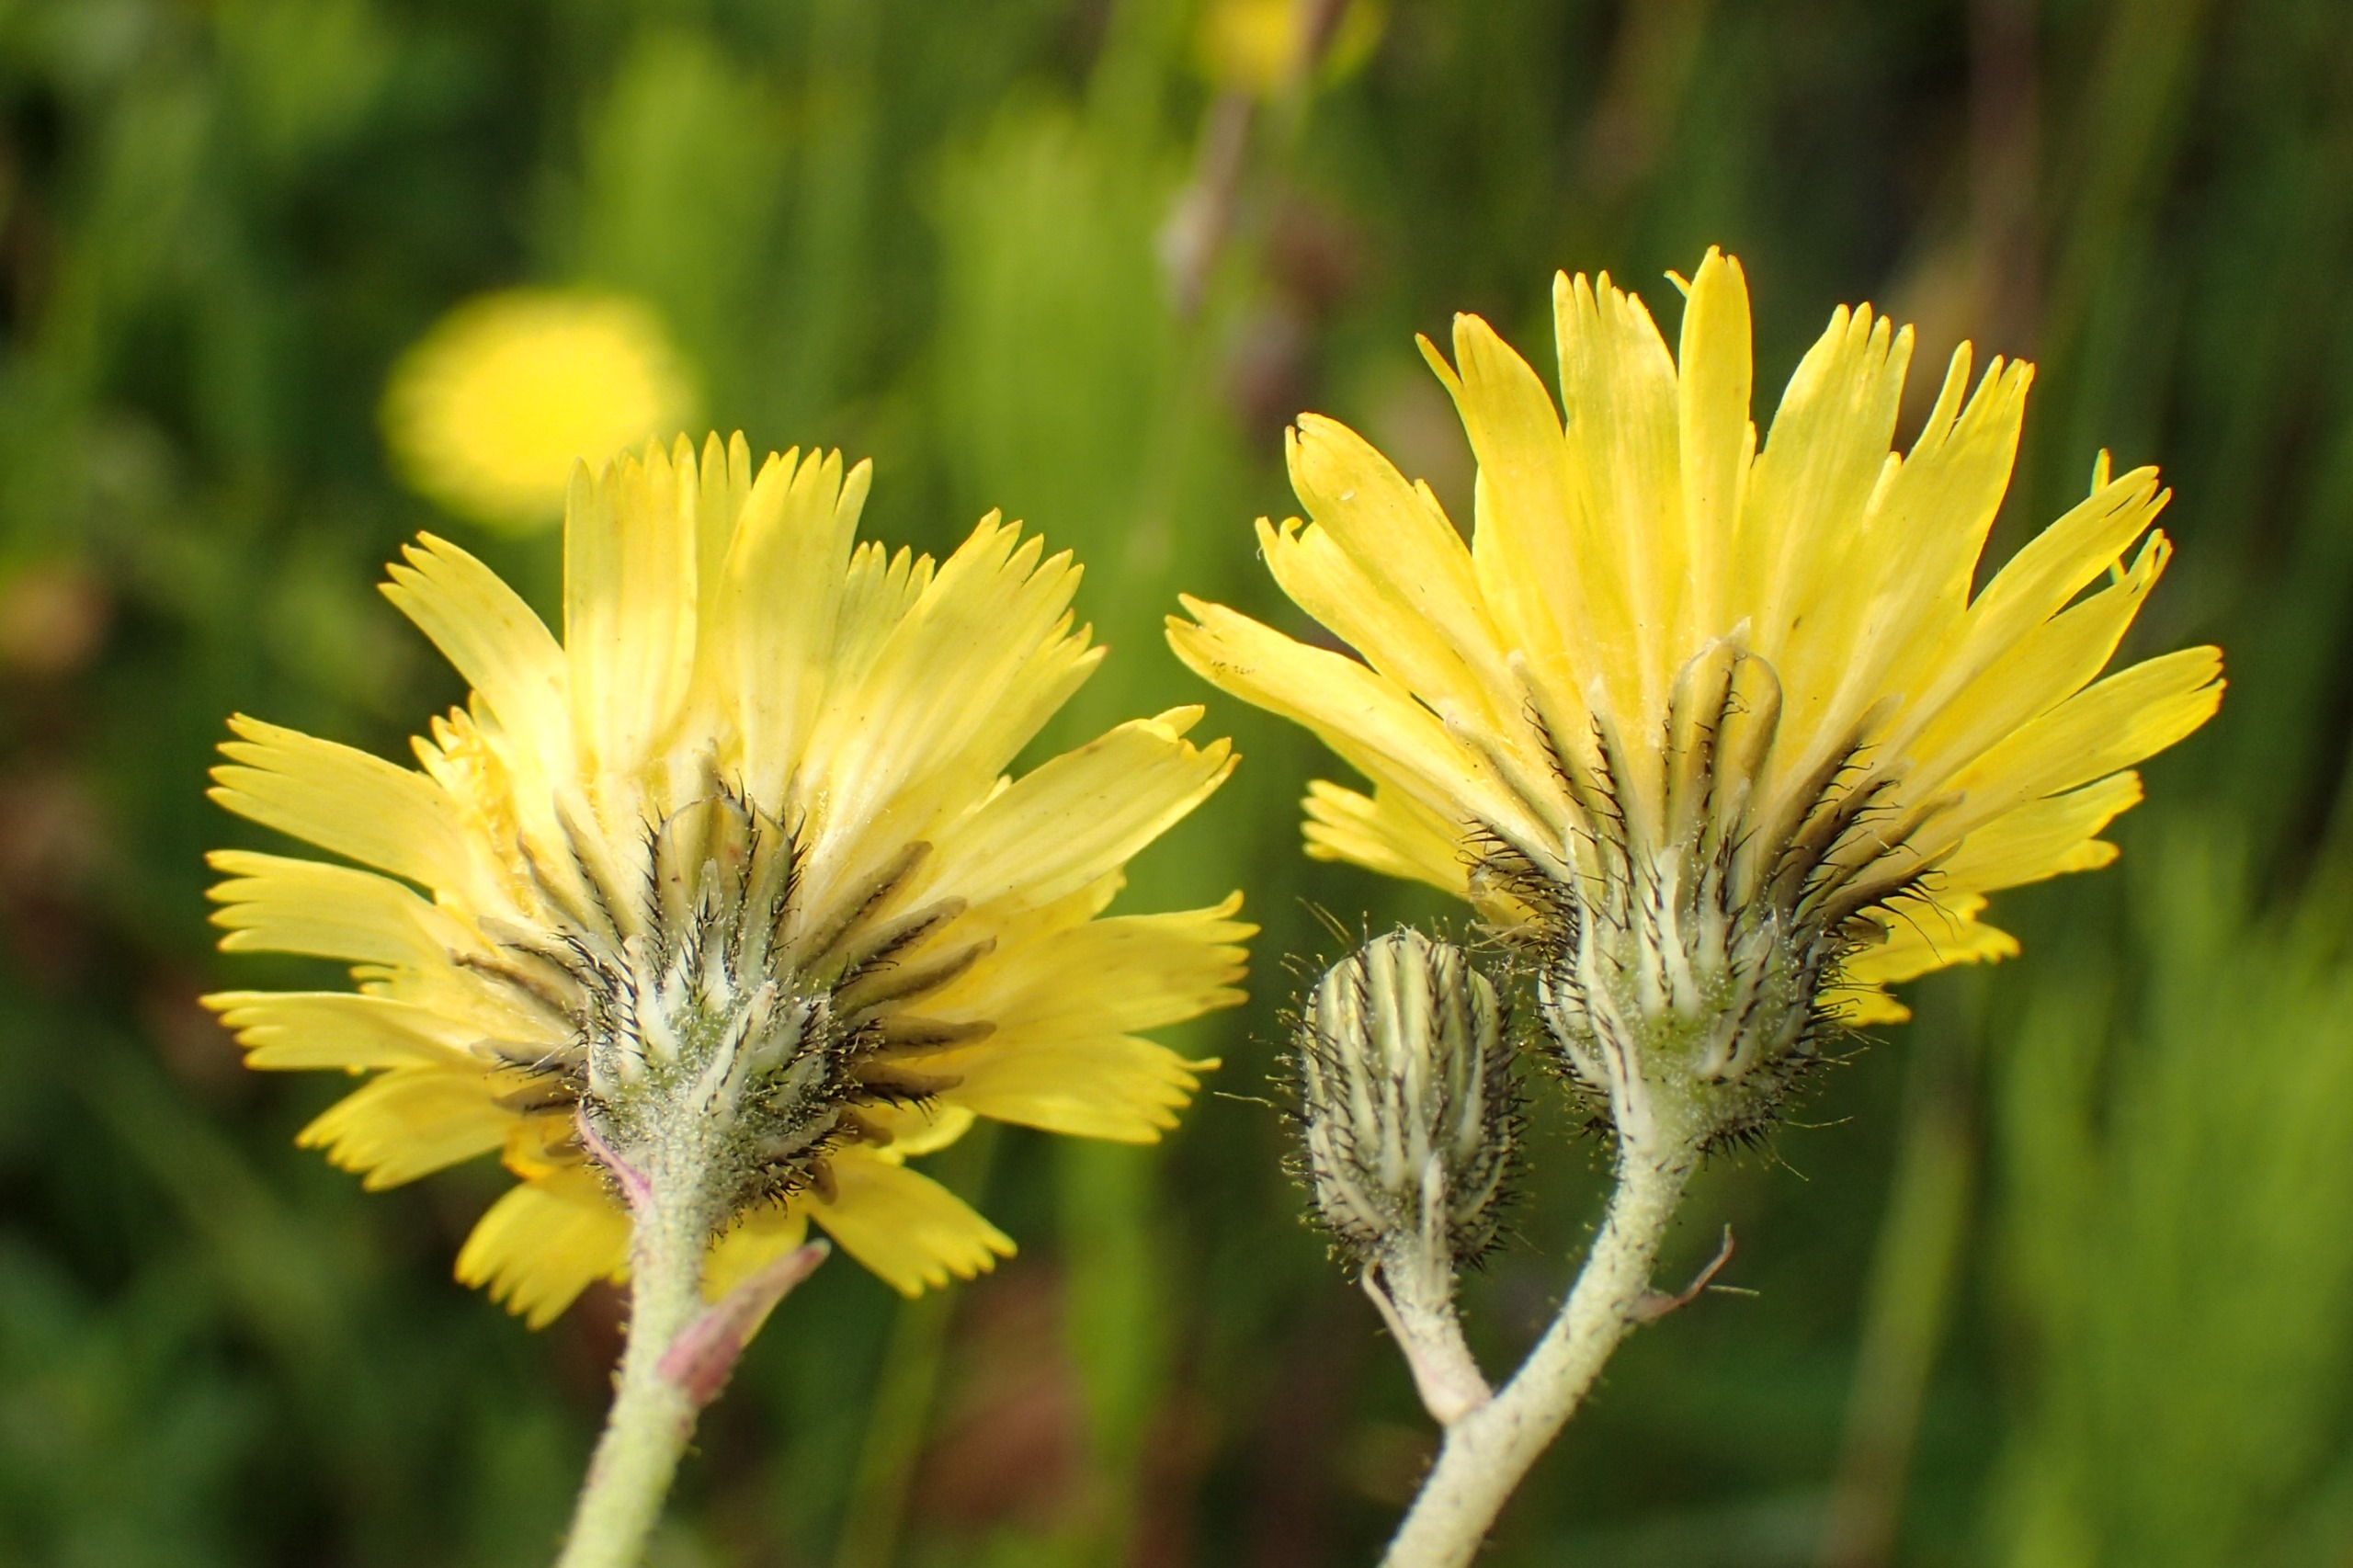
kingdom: Plantae
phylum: Tracheophyta
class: Magnoliopsida
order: Asterales
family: Asteraceae
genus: Pilosella
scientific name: Pilosella lactucella
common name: Lancetbladet høgeurt
